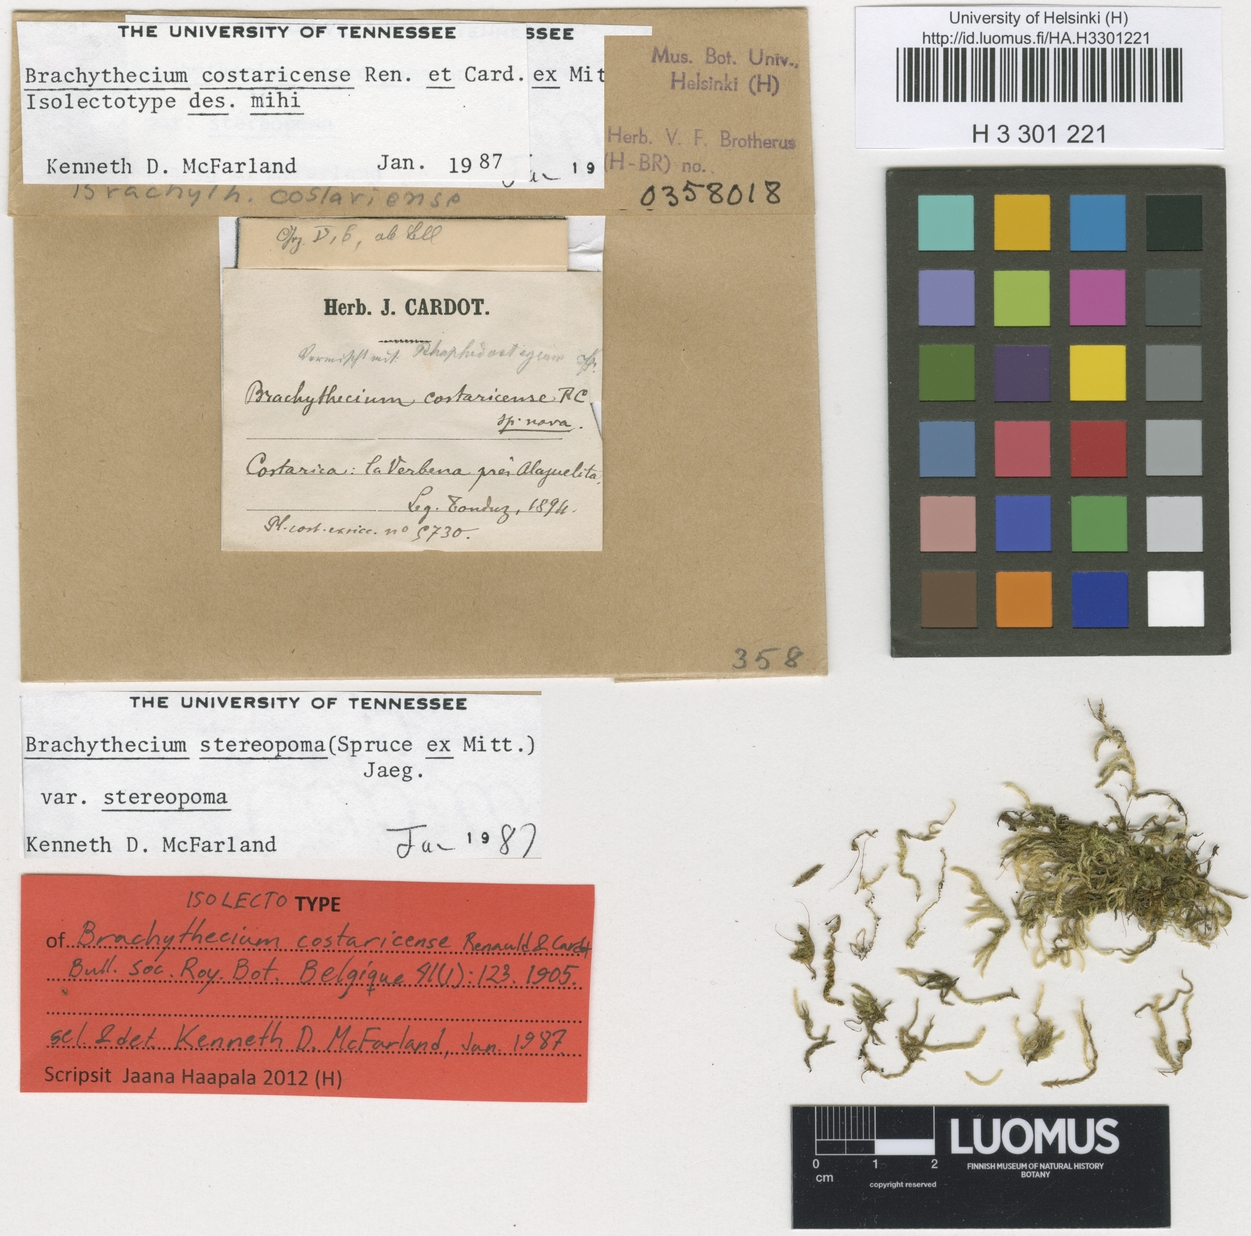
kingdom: Plantae
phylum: Bryophyta
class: Bryopsida
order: Hypnales
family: Brachytheciaceae
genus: Brachythecium
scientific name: Brachythecium ruderale
